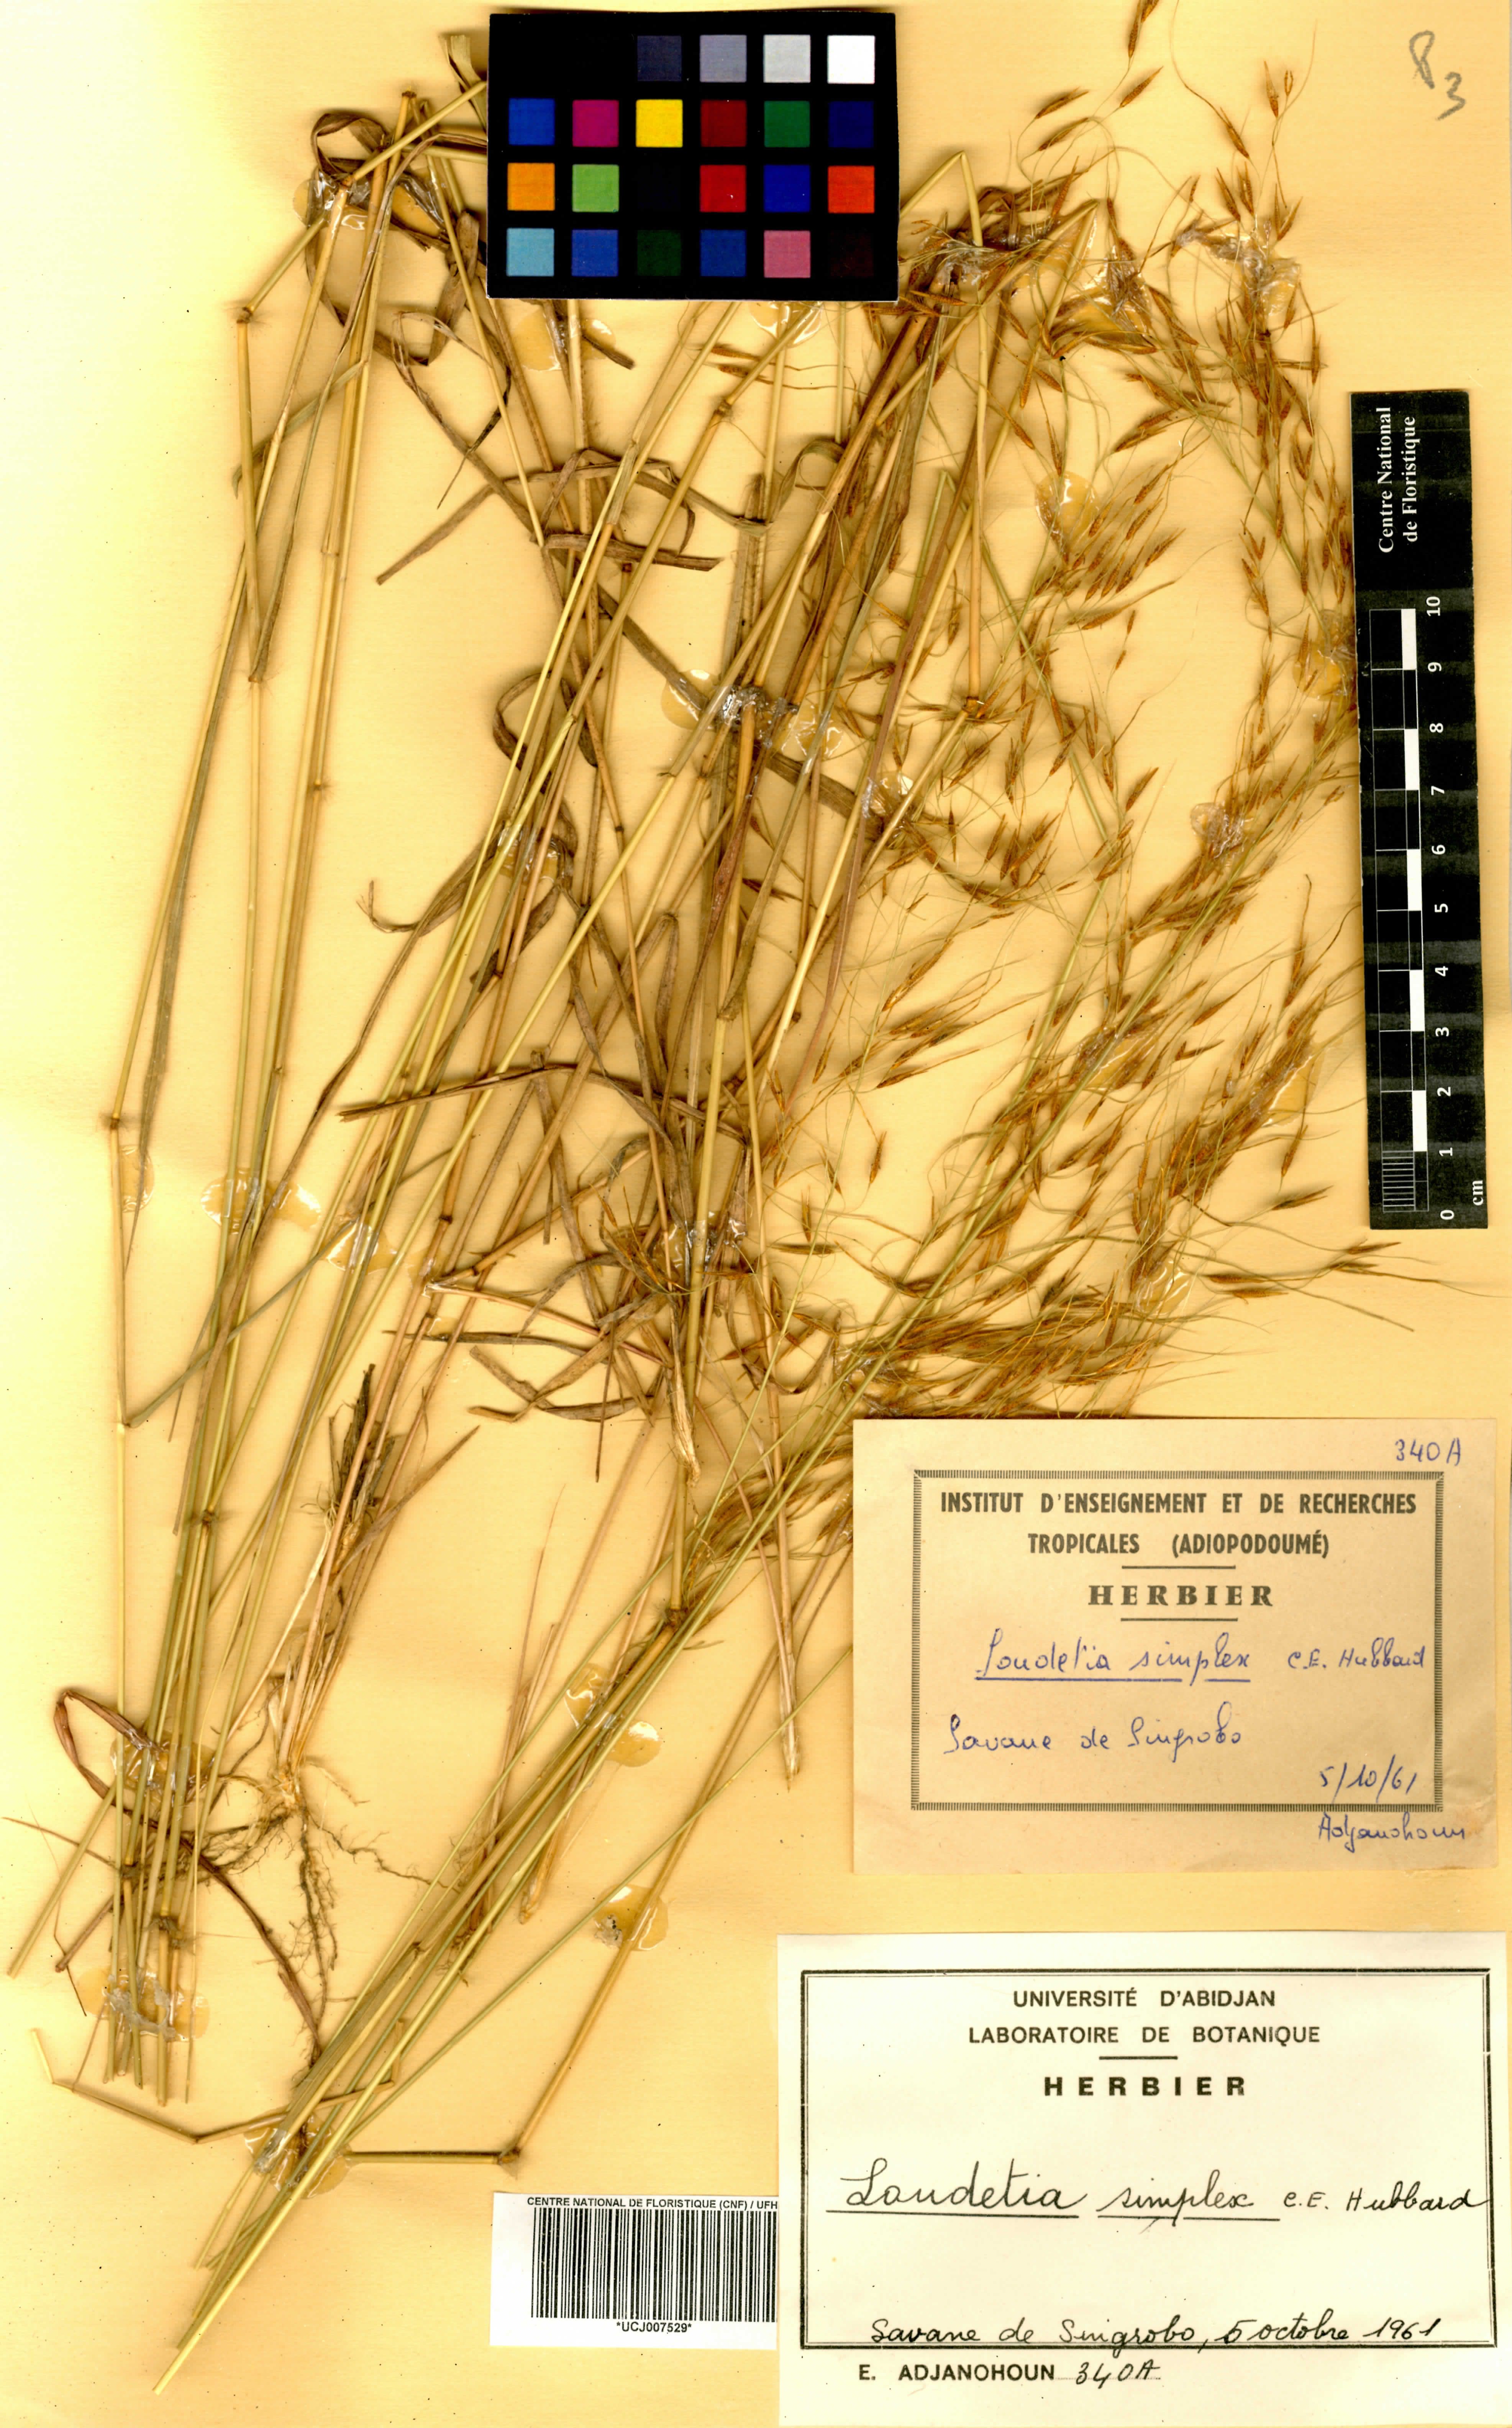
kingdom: Plantae
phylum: Tracheophyta
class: Liliopsida
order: Poales
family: Poaceae
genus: Loudetia
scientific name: Loudetia simplex
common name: Common russet grass
